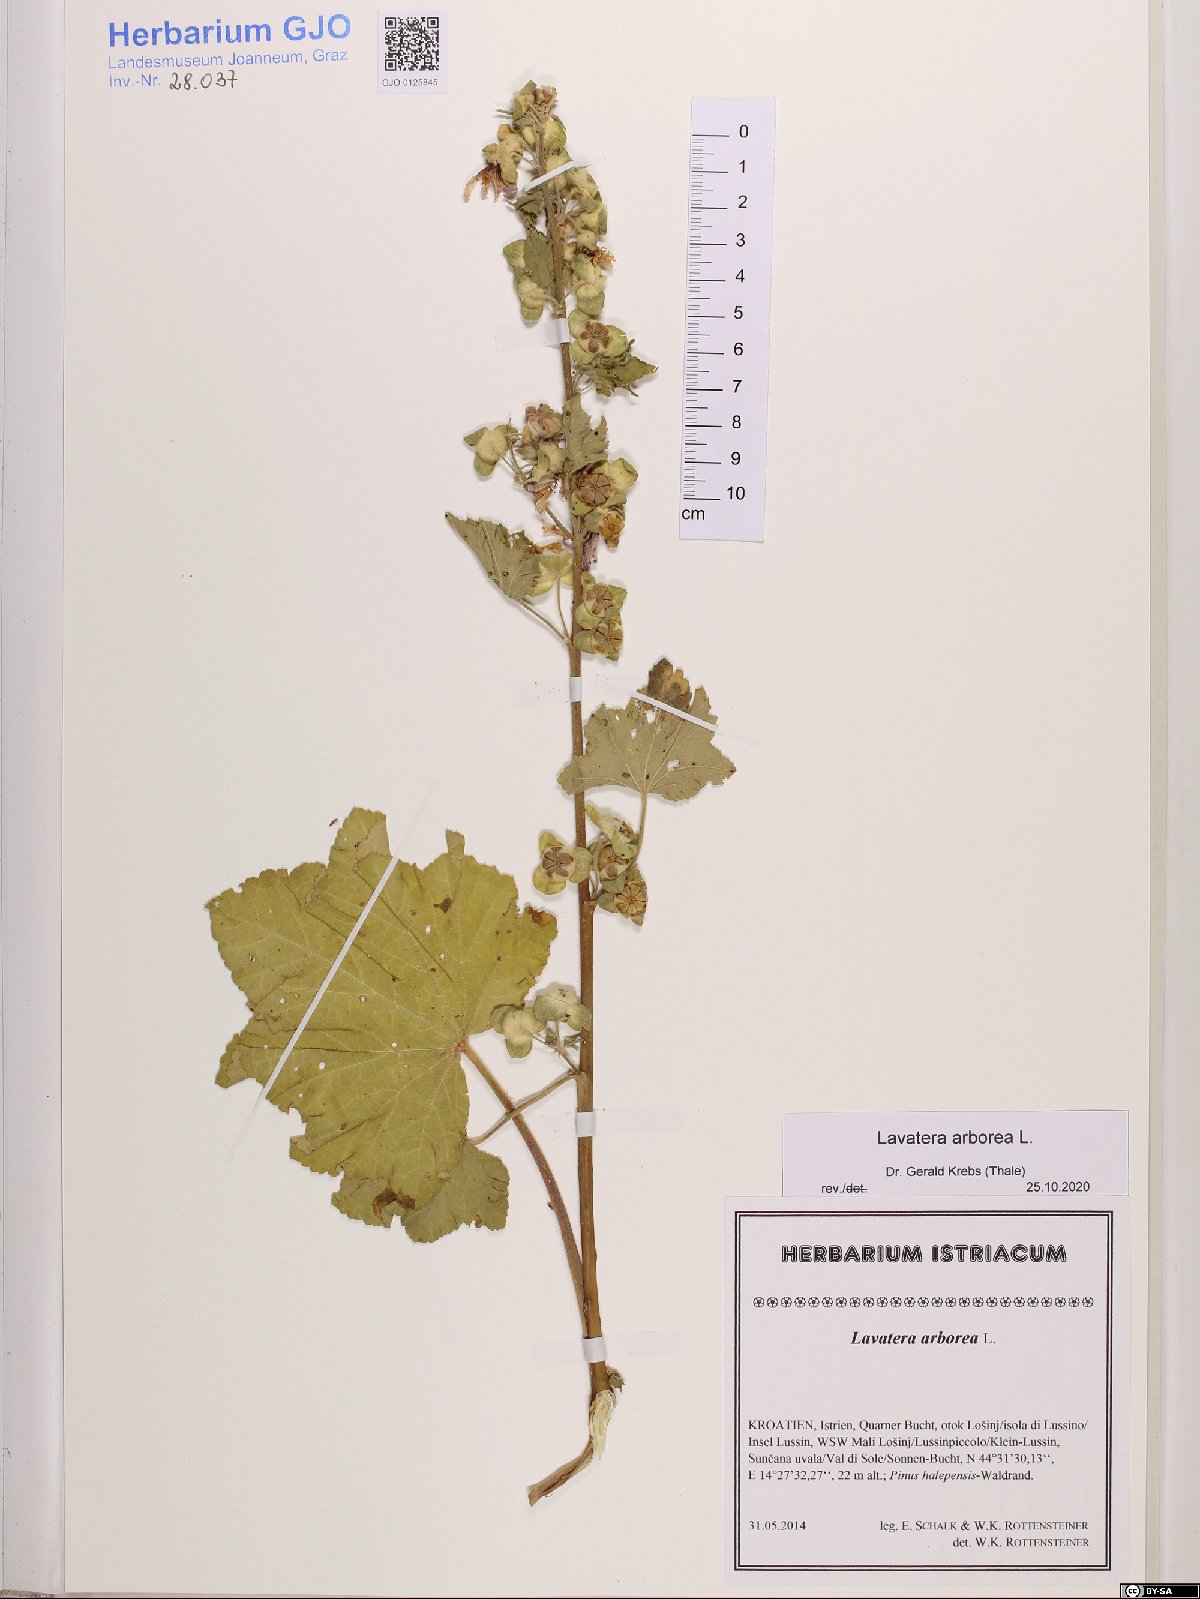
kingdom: Plantae
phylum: Tracheophyta
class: Magnoliopsida
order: Malvales
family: Malvaceae
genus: Malva
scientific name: Malva arborea
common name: Tree mallow
